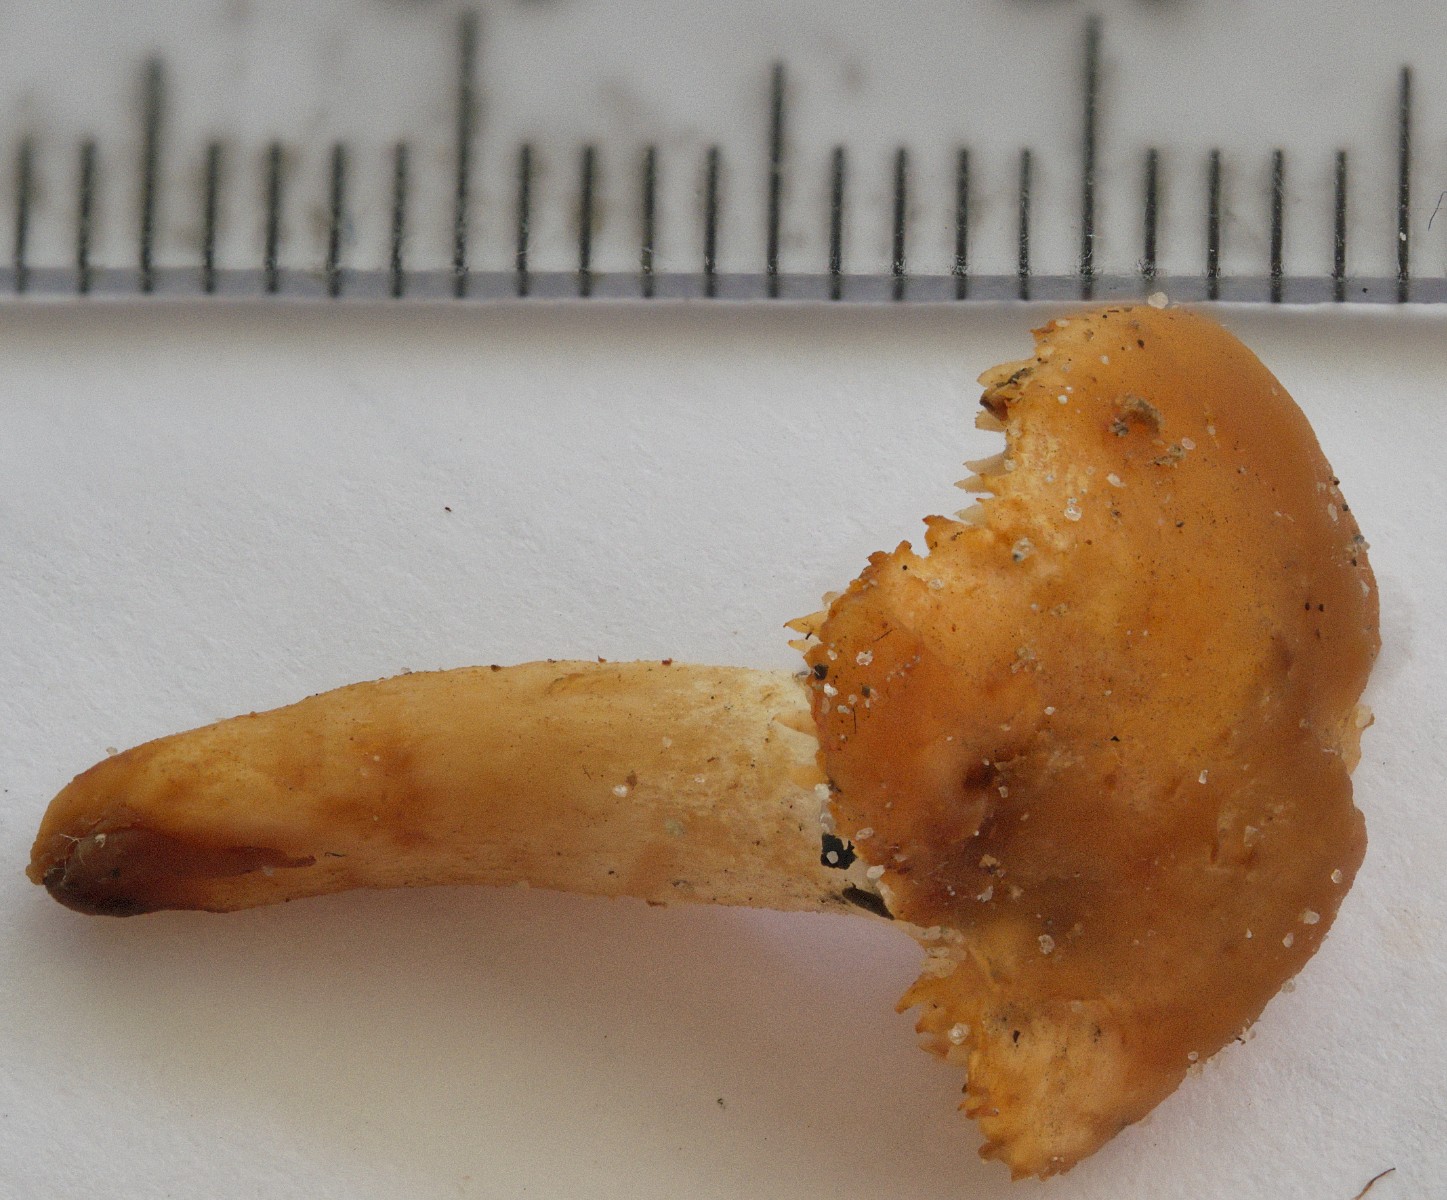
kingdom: Fungi
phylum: Basidiomycota
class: Agaricomycetes
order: Cantharellales
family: Hydnaceae
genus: Hydnum
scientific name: Hydnum umbilicatum
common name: navle-pigsvamp
